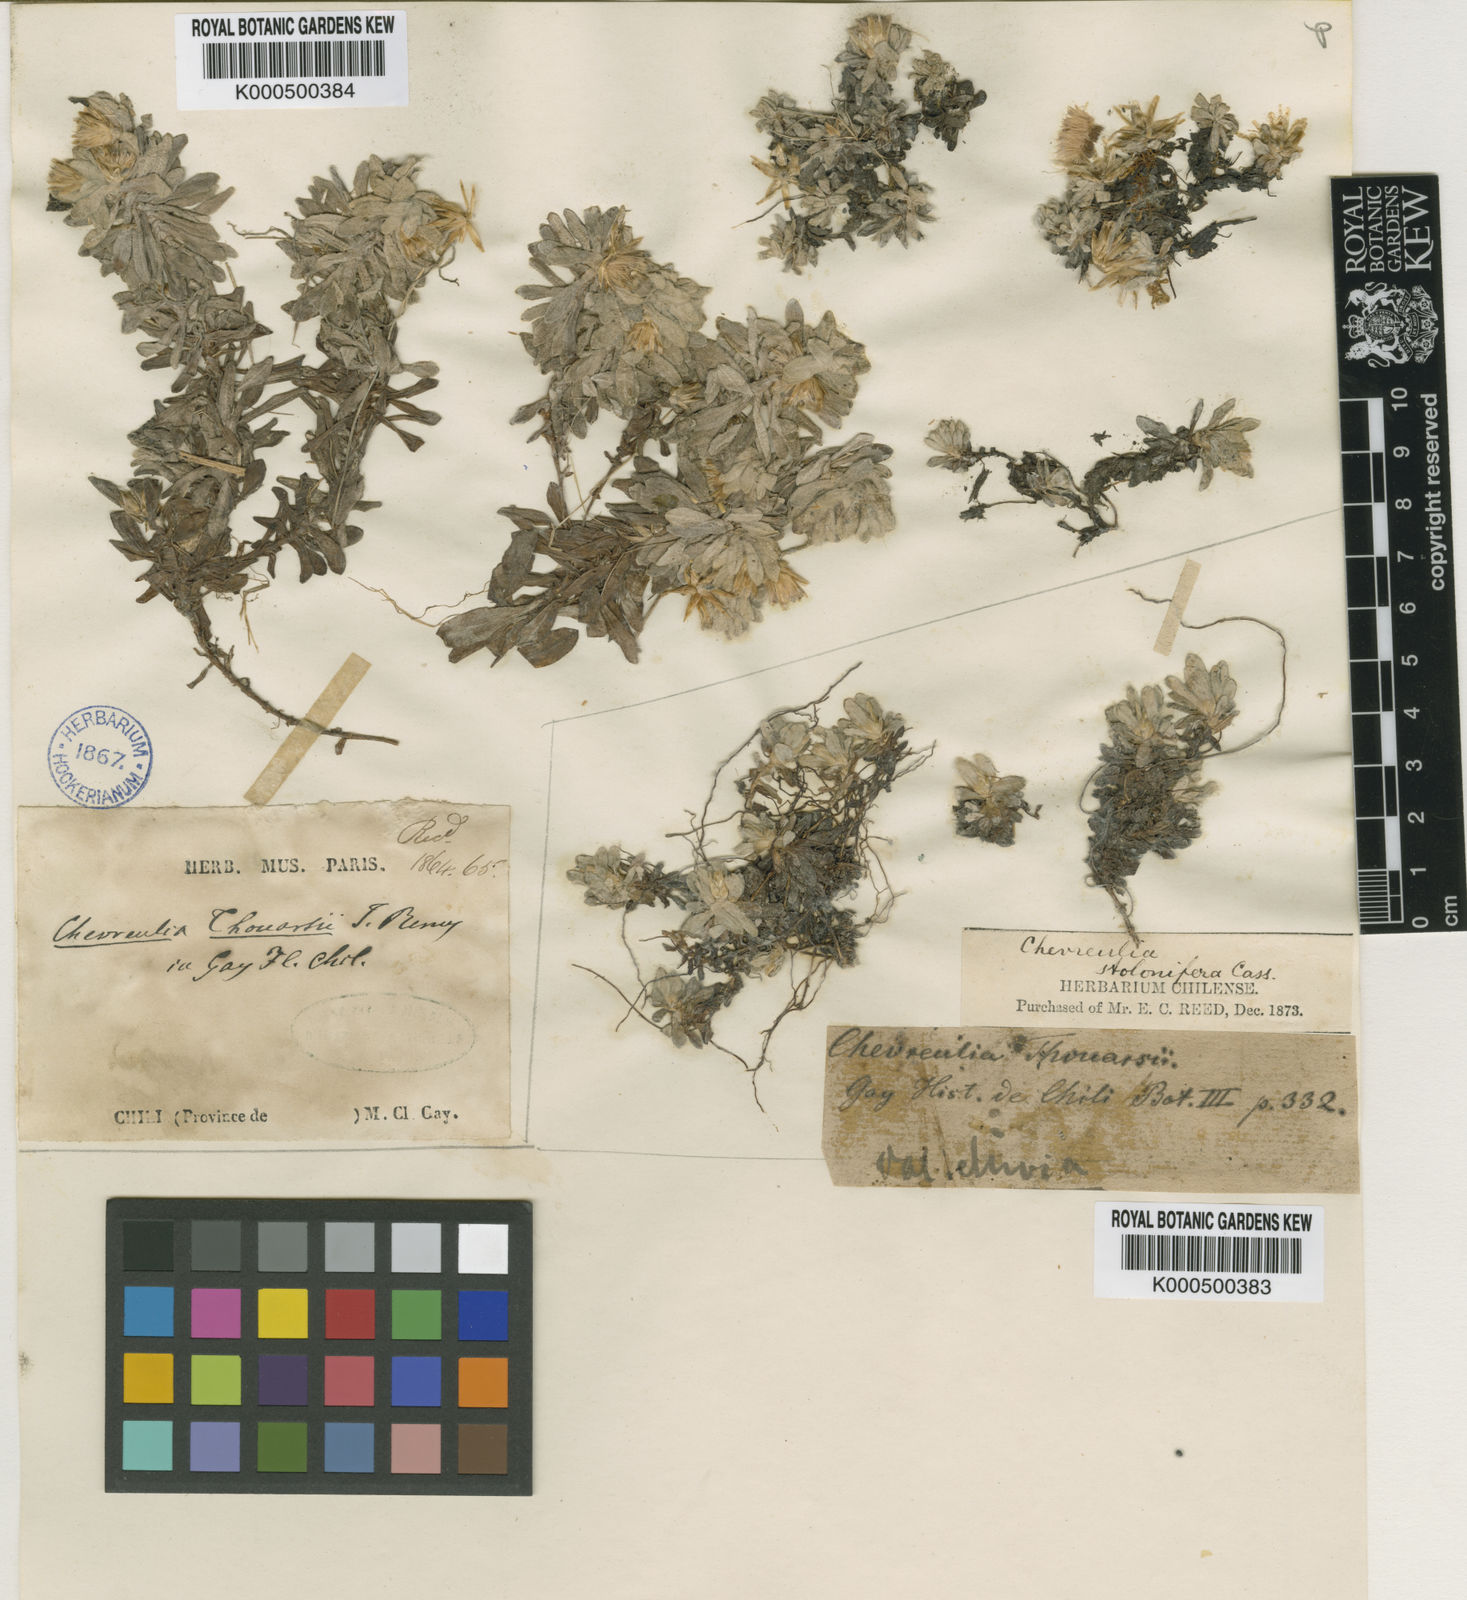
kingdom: Plantae
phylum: Tracheophyta
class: Magnoliopsida
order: Asterales
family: Asteraceae
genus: Chevreulia
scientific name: Chevreulia sarmentosa
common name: Sunflower
